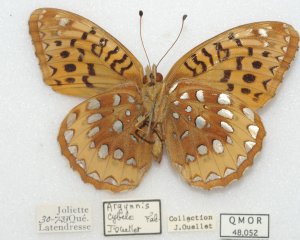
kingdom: Animalia
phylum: Arthropoda
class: Insecta
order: Lepidoptera
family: Nymphalidae
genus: Speyeria
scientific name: Speyeria cybele
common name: Great Spangled Fritillary
